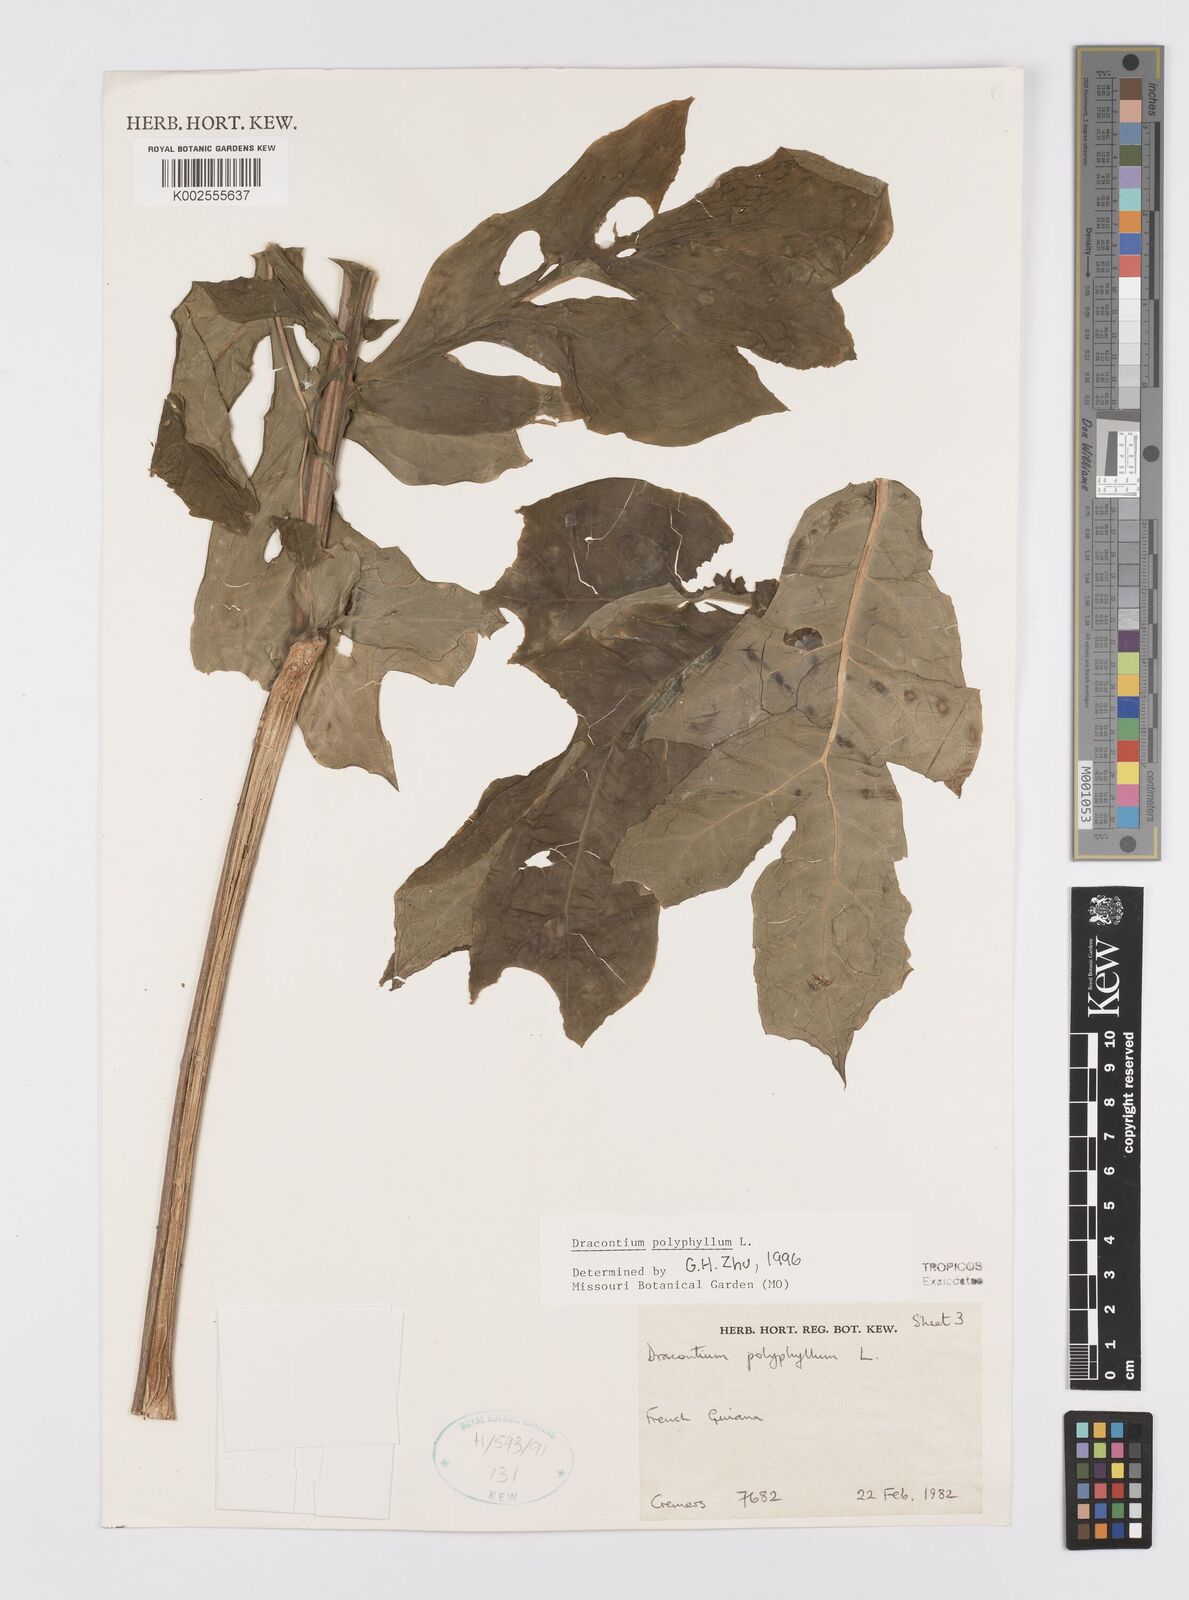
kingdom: Plantae
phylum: Tracheophyta
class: Liliopsida
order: Alismatales
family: Araceae
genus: Dracontium
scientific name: Dracontium polyphyllum
